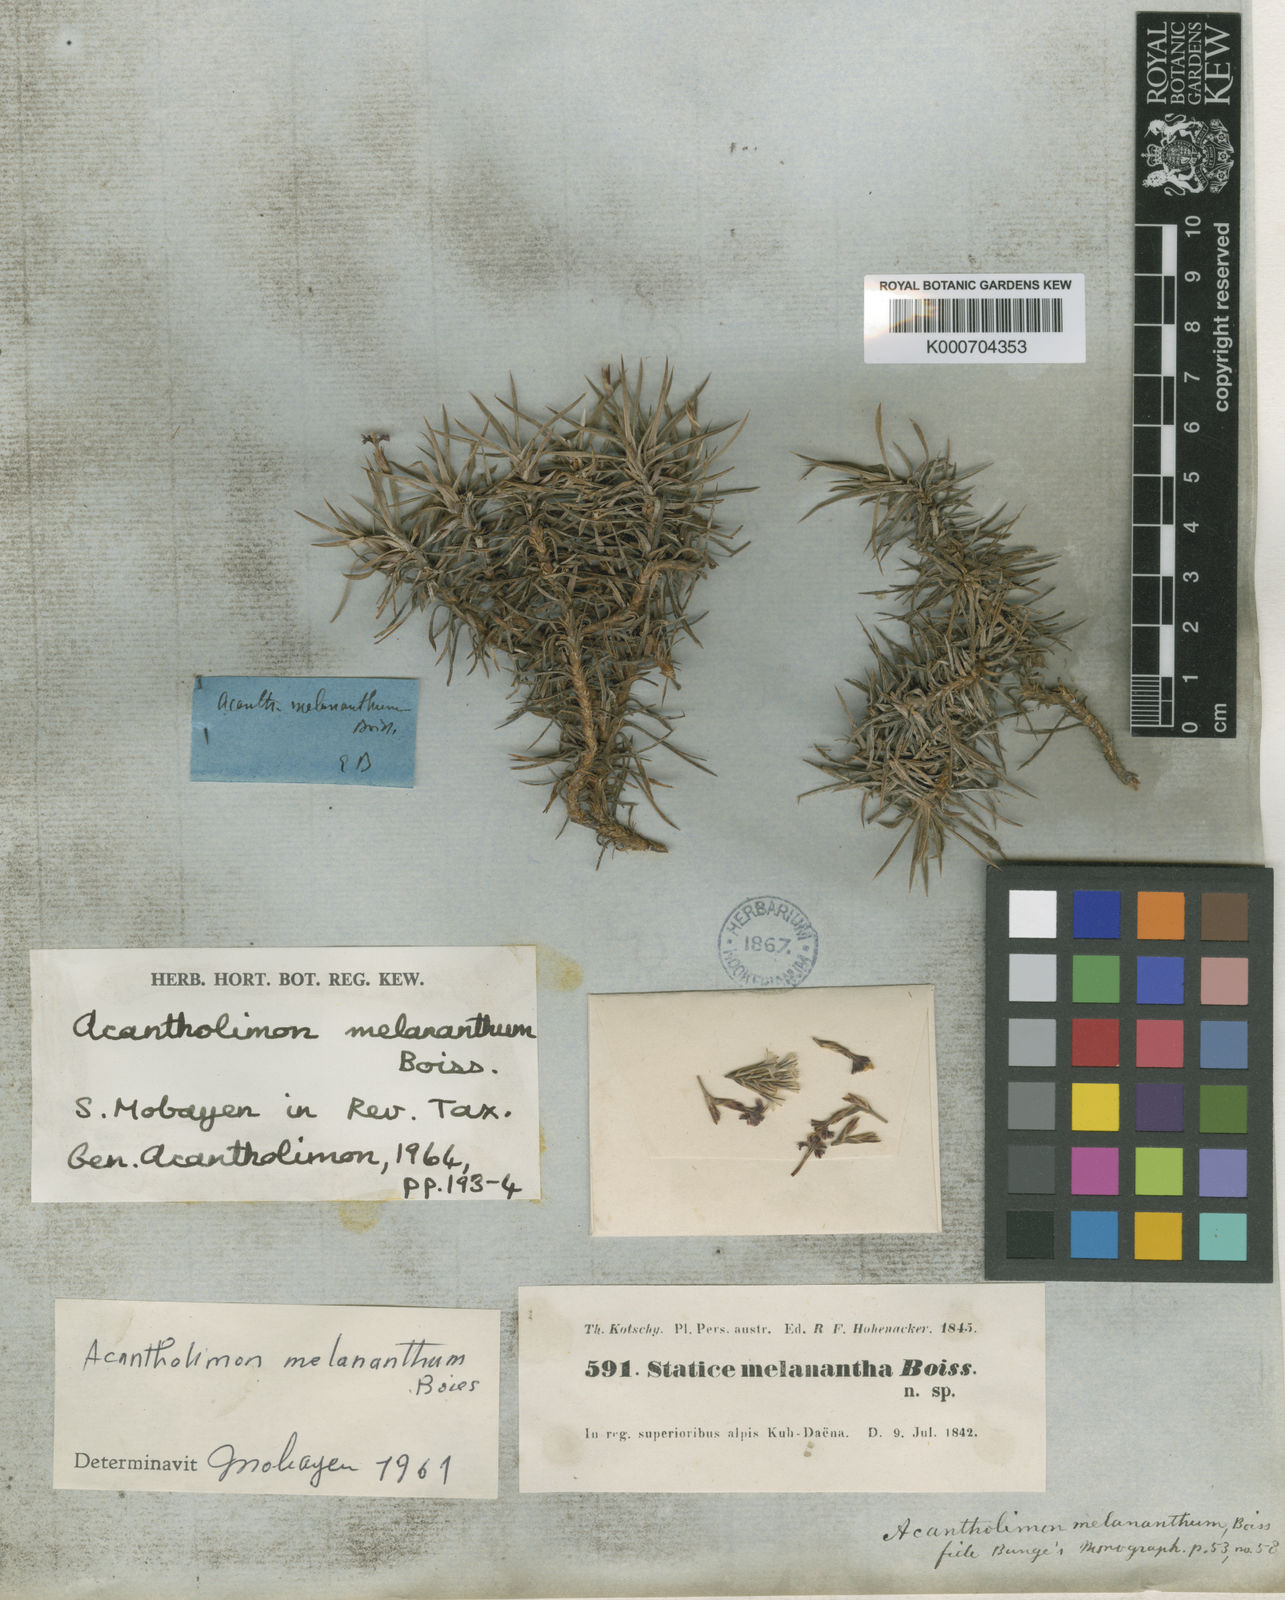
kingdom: Plantae
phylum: Tracheophyta
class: Magnoliopsida
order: Caryophyllales
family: Plumbaginaceae
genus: Acantholimon
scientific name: Acantholimon melananthum
